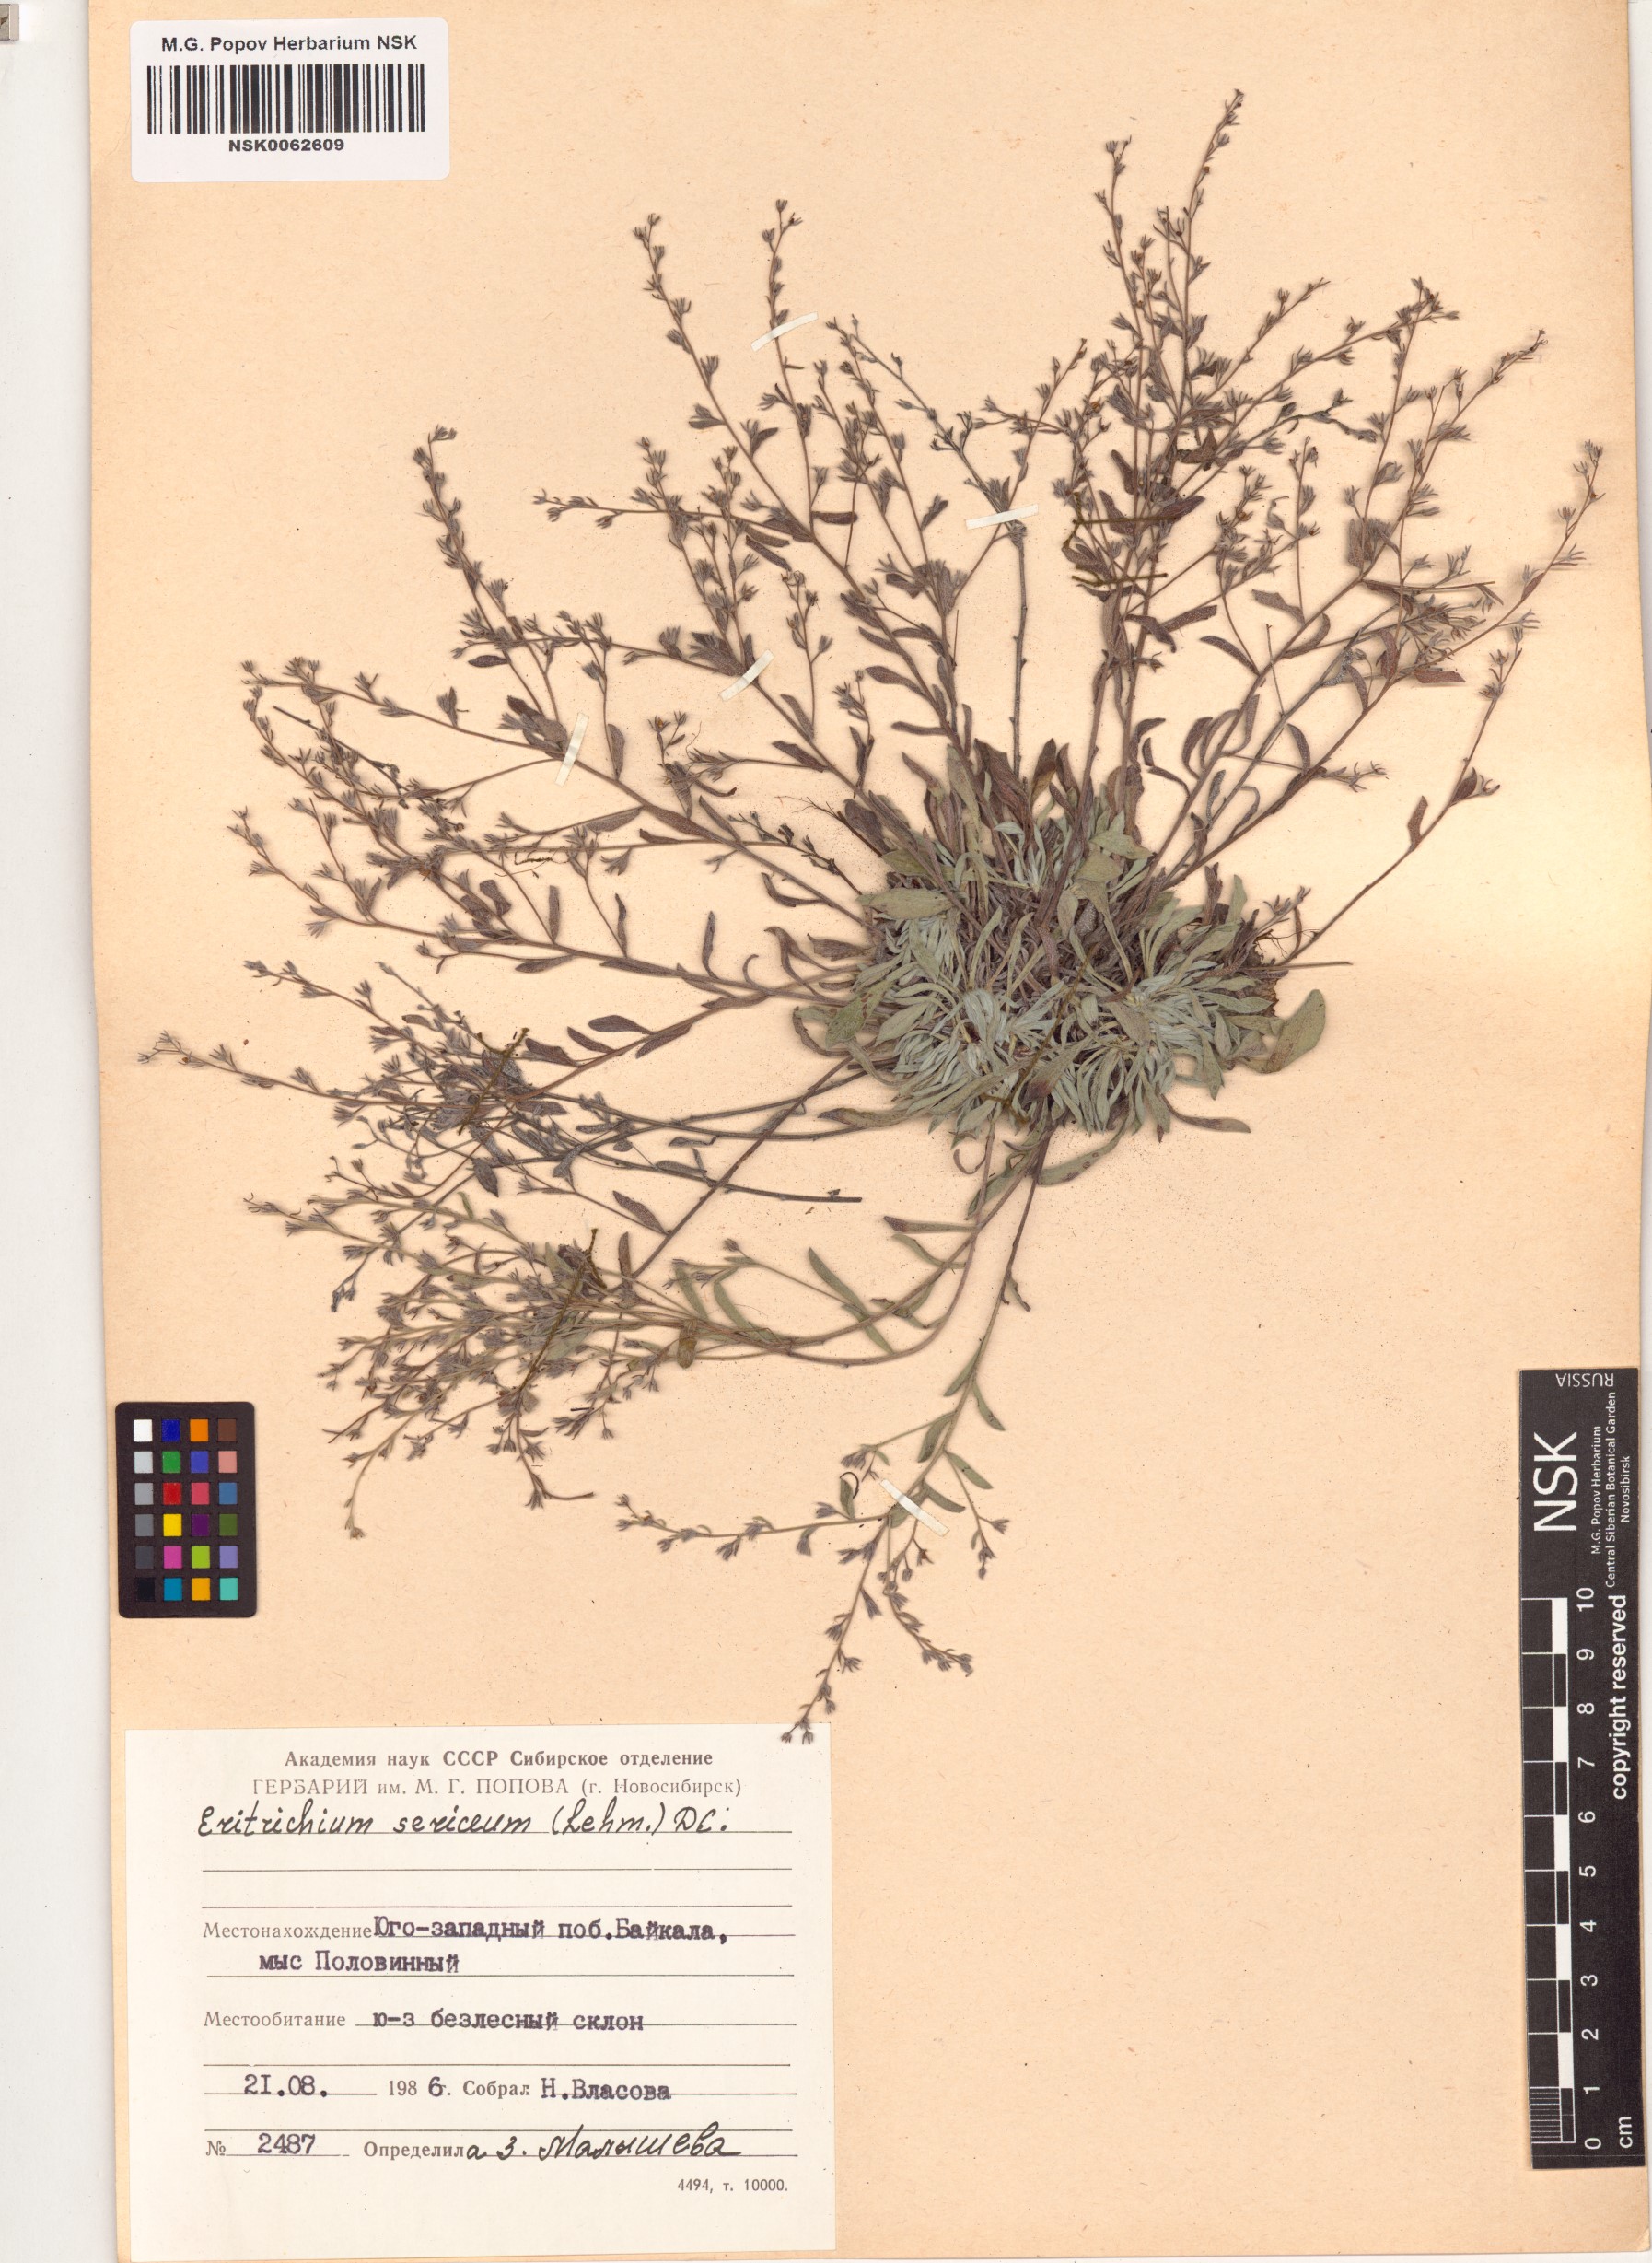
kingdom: Plantae
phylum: Tracheophyta
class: Magnoliopsida
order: Boraginales
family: Boraginaceae
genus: Eritrichium
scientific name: Eritrichium sericeum
